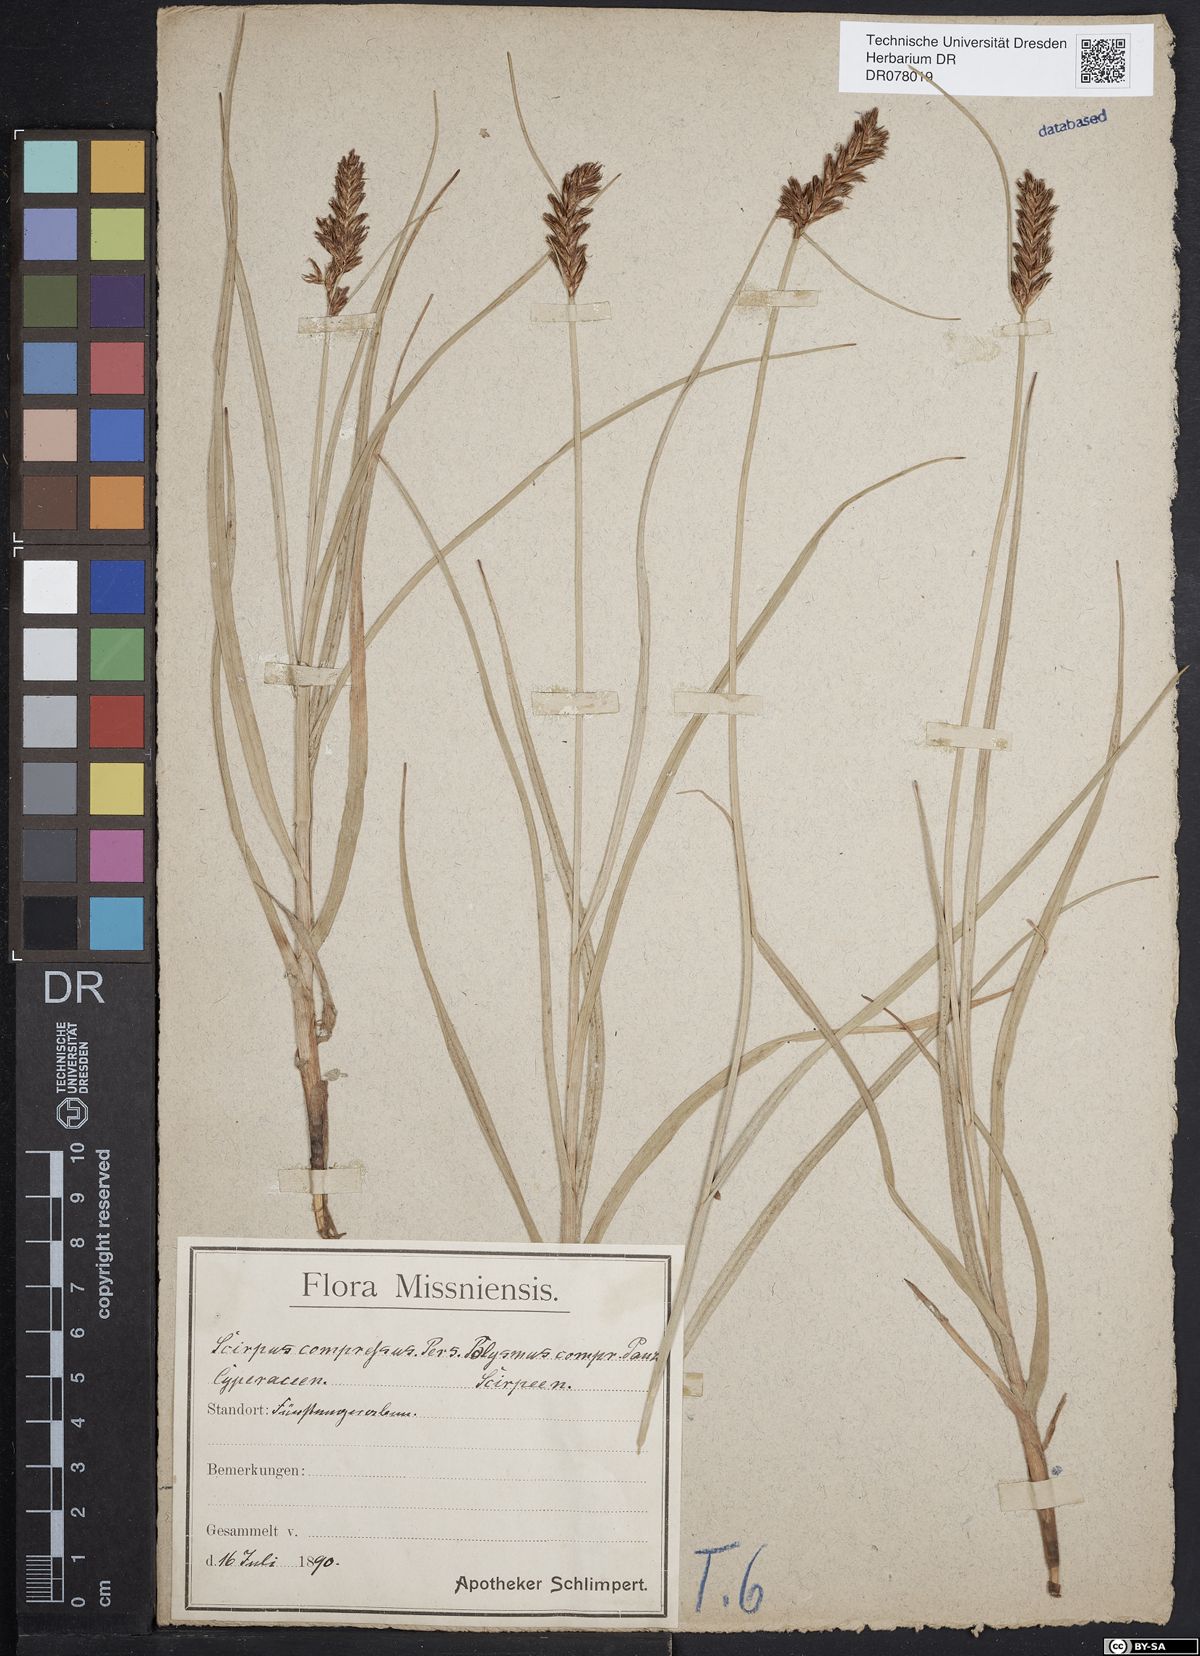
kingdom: Plantae
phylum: Tracheophyta
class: Liliopsida
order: Poales
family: Cyperaceae
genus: Blysmus
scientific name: Blysmus compressus
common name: Flat-sedge
